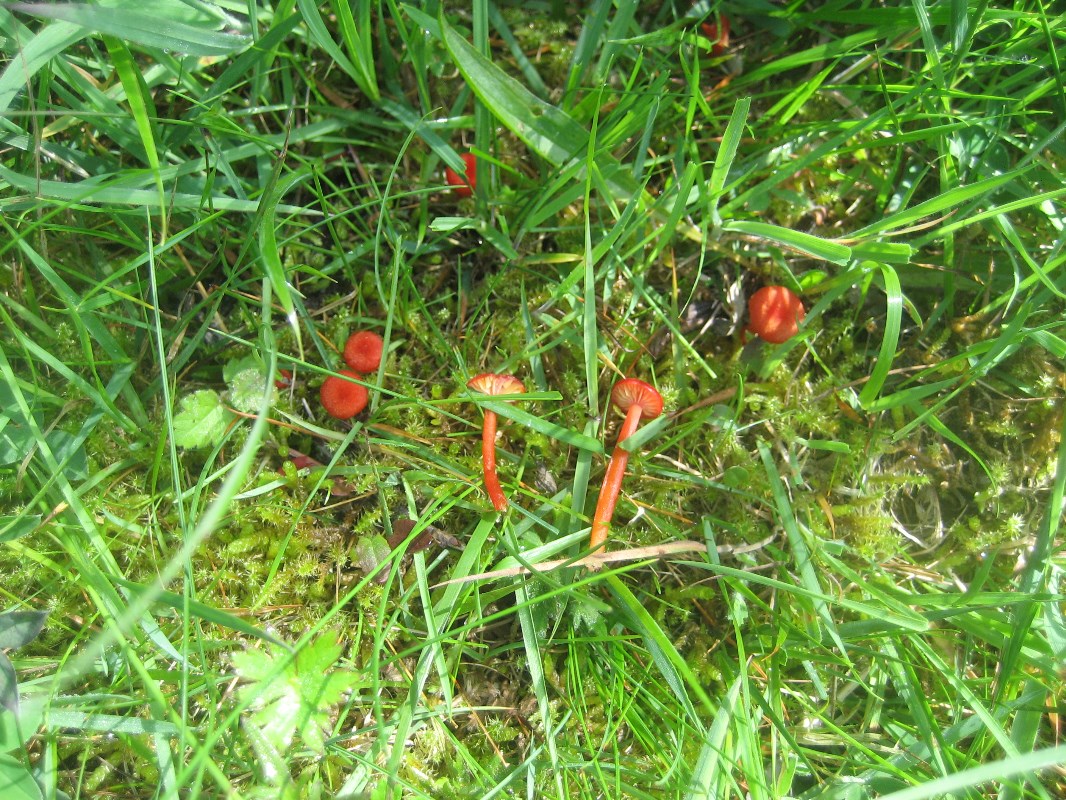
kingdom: Fungi
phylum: Basidiomycota
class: Agaricomycetes
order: Agaricales
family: Hygrophoraceae
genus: Hygrocybe
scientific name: Hygrocybe helobia
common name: hvidløgs-vokshat
